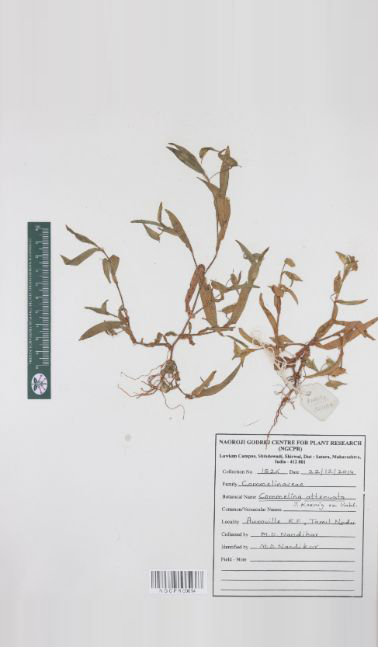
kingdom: Plantae
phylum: Tracheophyta
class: Liliopsida
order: Commelinales
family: Commelinaceae
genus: Commelina
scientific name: Commelina attenuata
